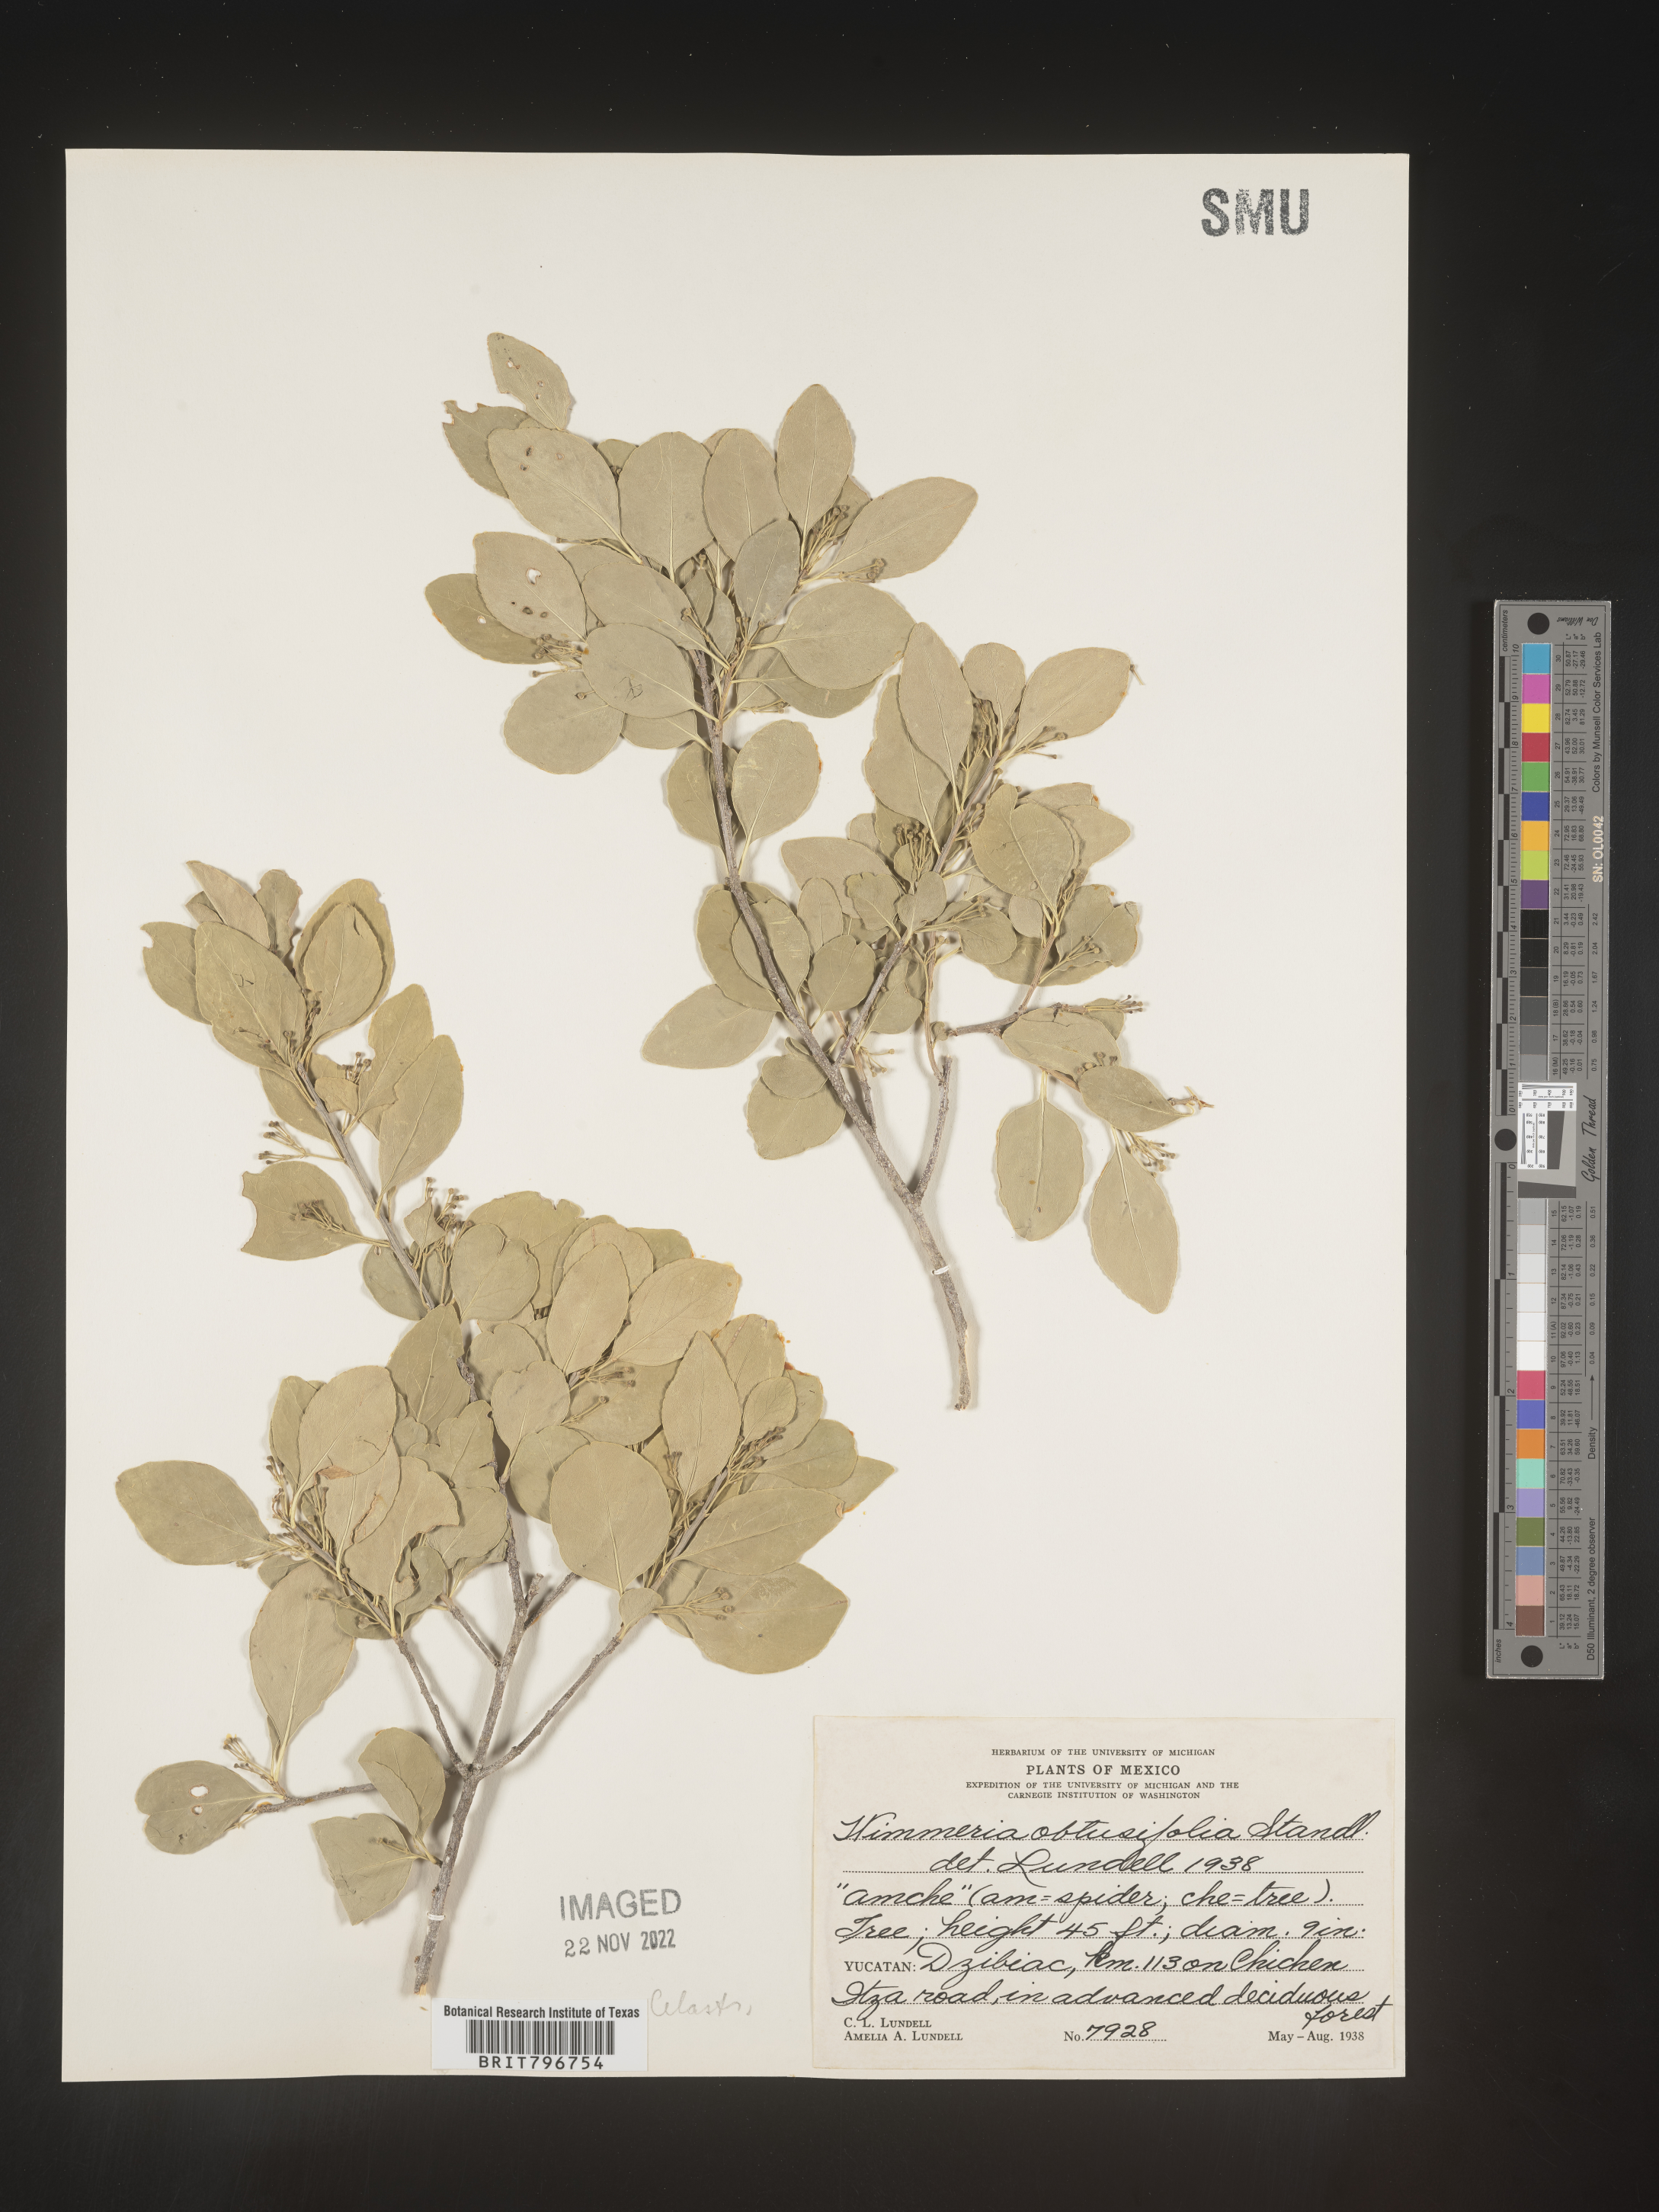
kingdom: Plantae
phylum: Tracheophyta
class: Magnoliopsida
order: Celastrales
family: Celastraceae
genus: Wimmeria
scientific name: Wimmeria
